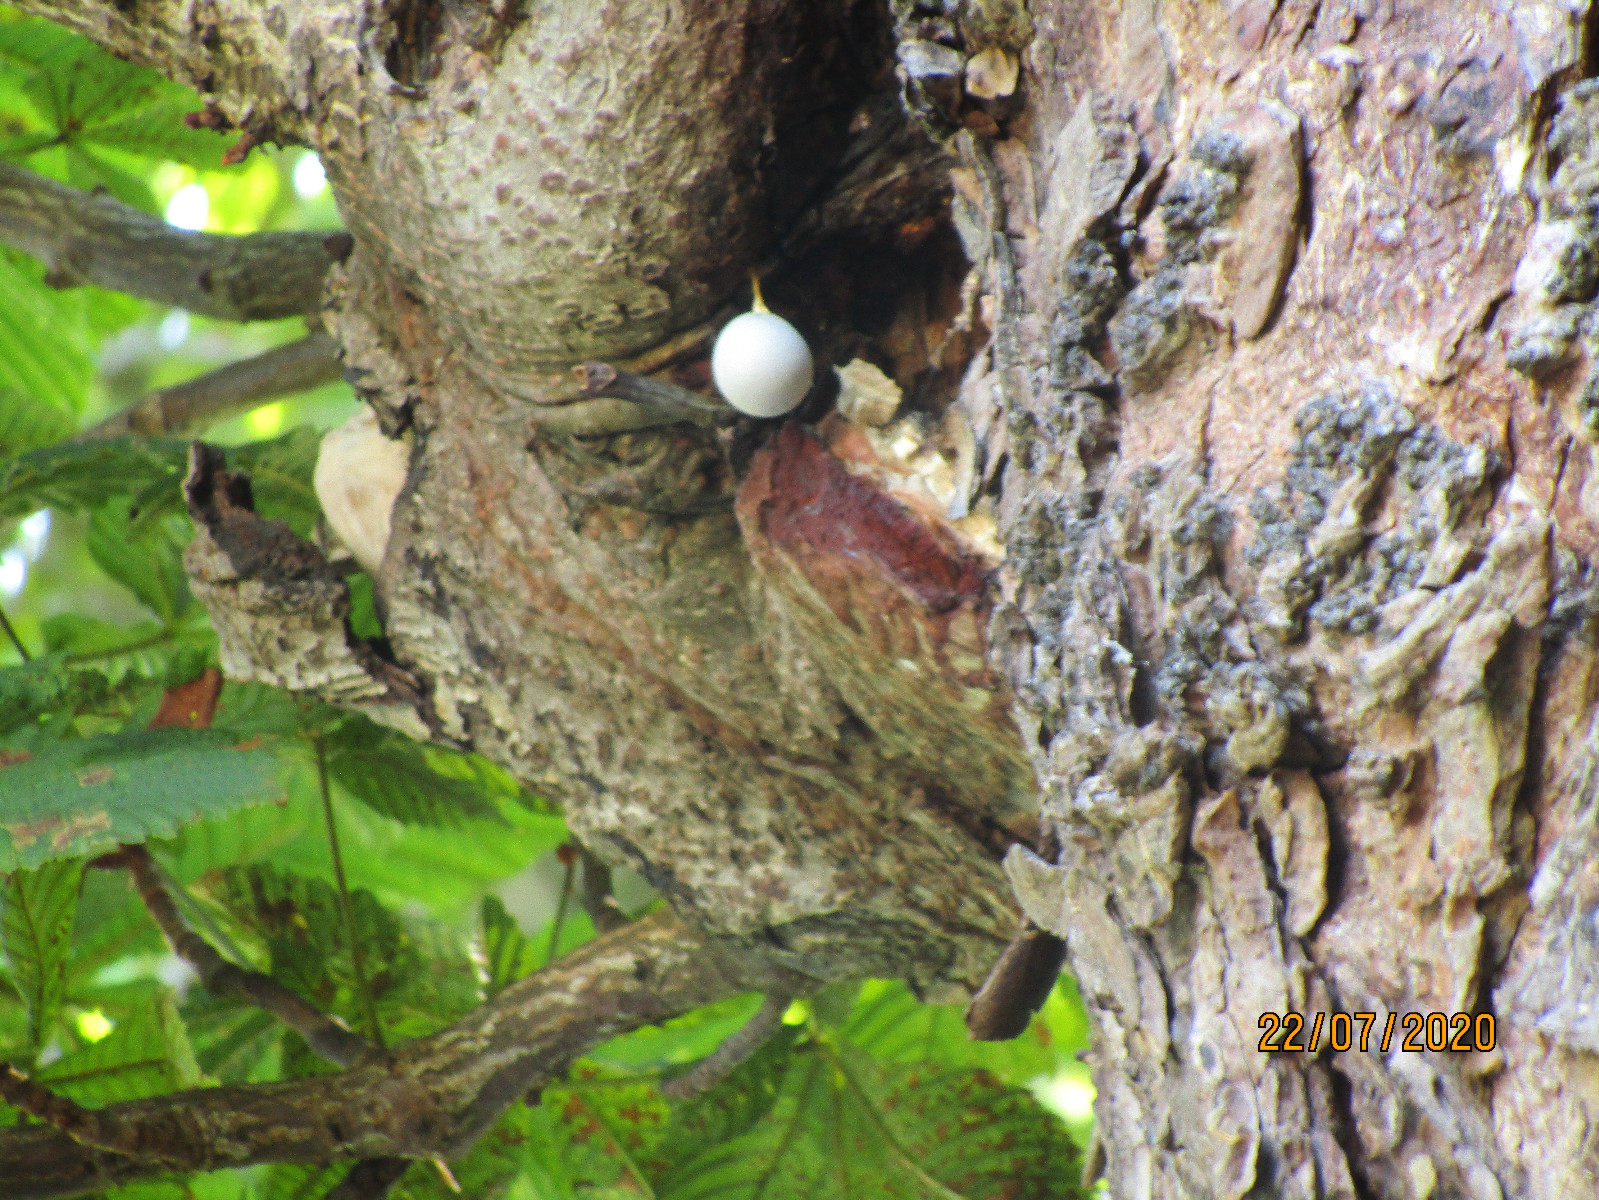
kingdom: Protozoa
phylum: Mycetozoa
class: Myxomycetes
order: Cribrariales
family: Tubiferaceae
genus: Lycogala
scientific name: Lycogala flavofuscum
